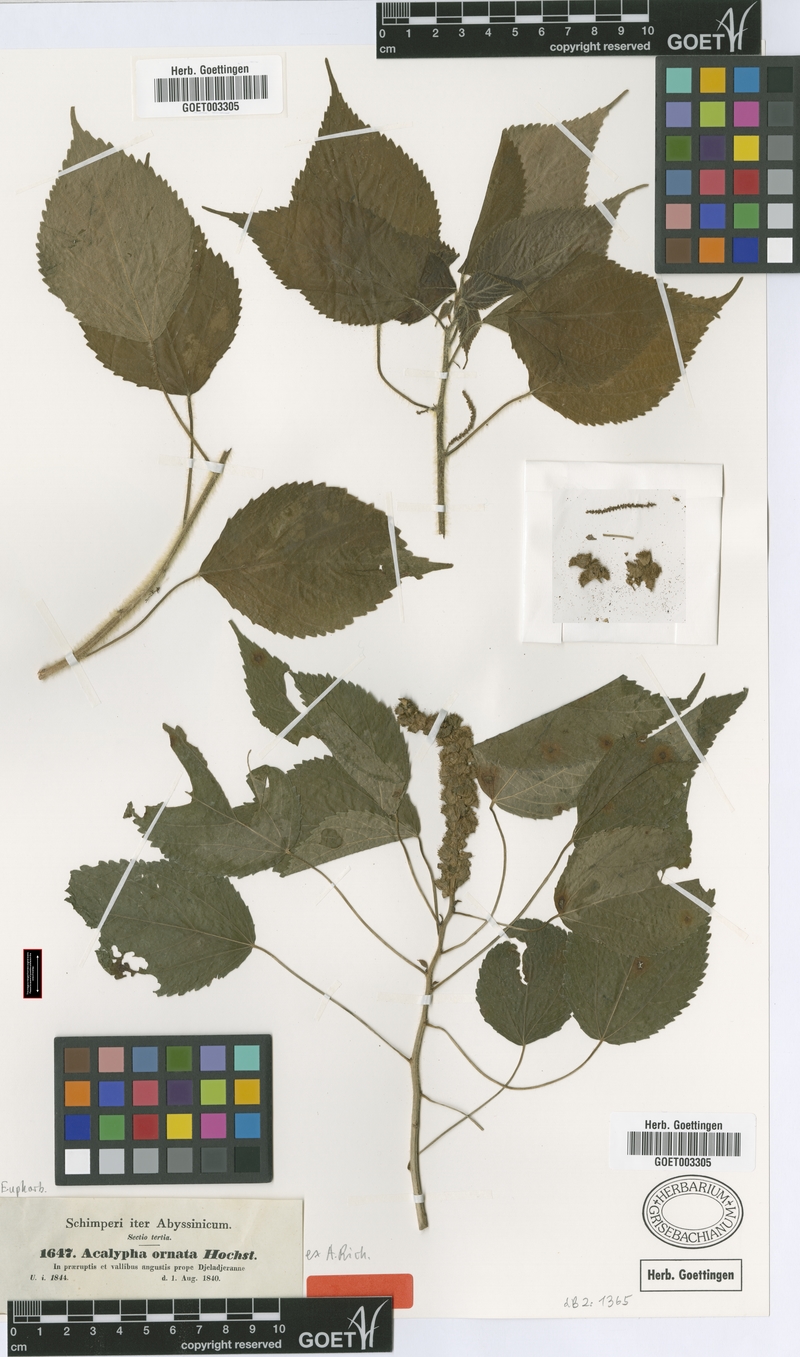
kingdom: Plantae
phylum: Tracheophyta
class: Magnoliopsida
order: Malpighiales
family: Euphorbiaceae
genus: Acalypha
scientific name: Acalypha ornata
